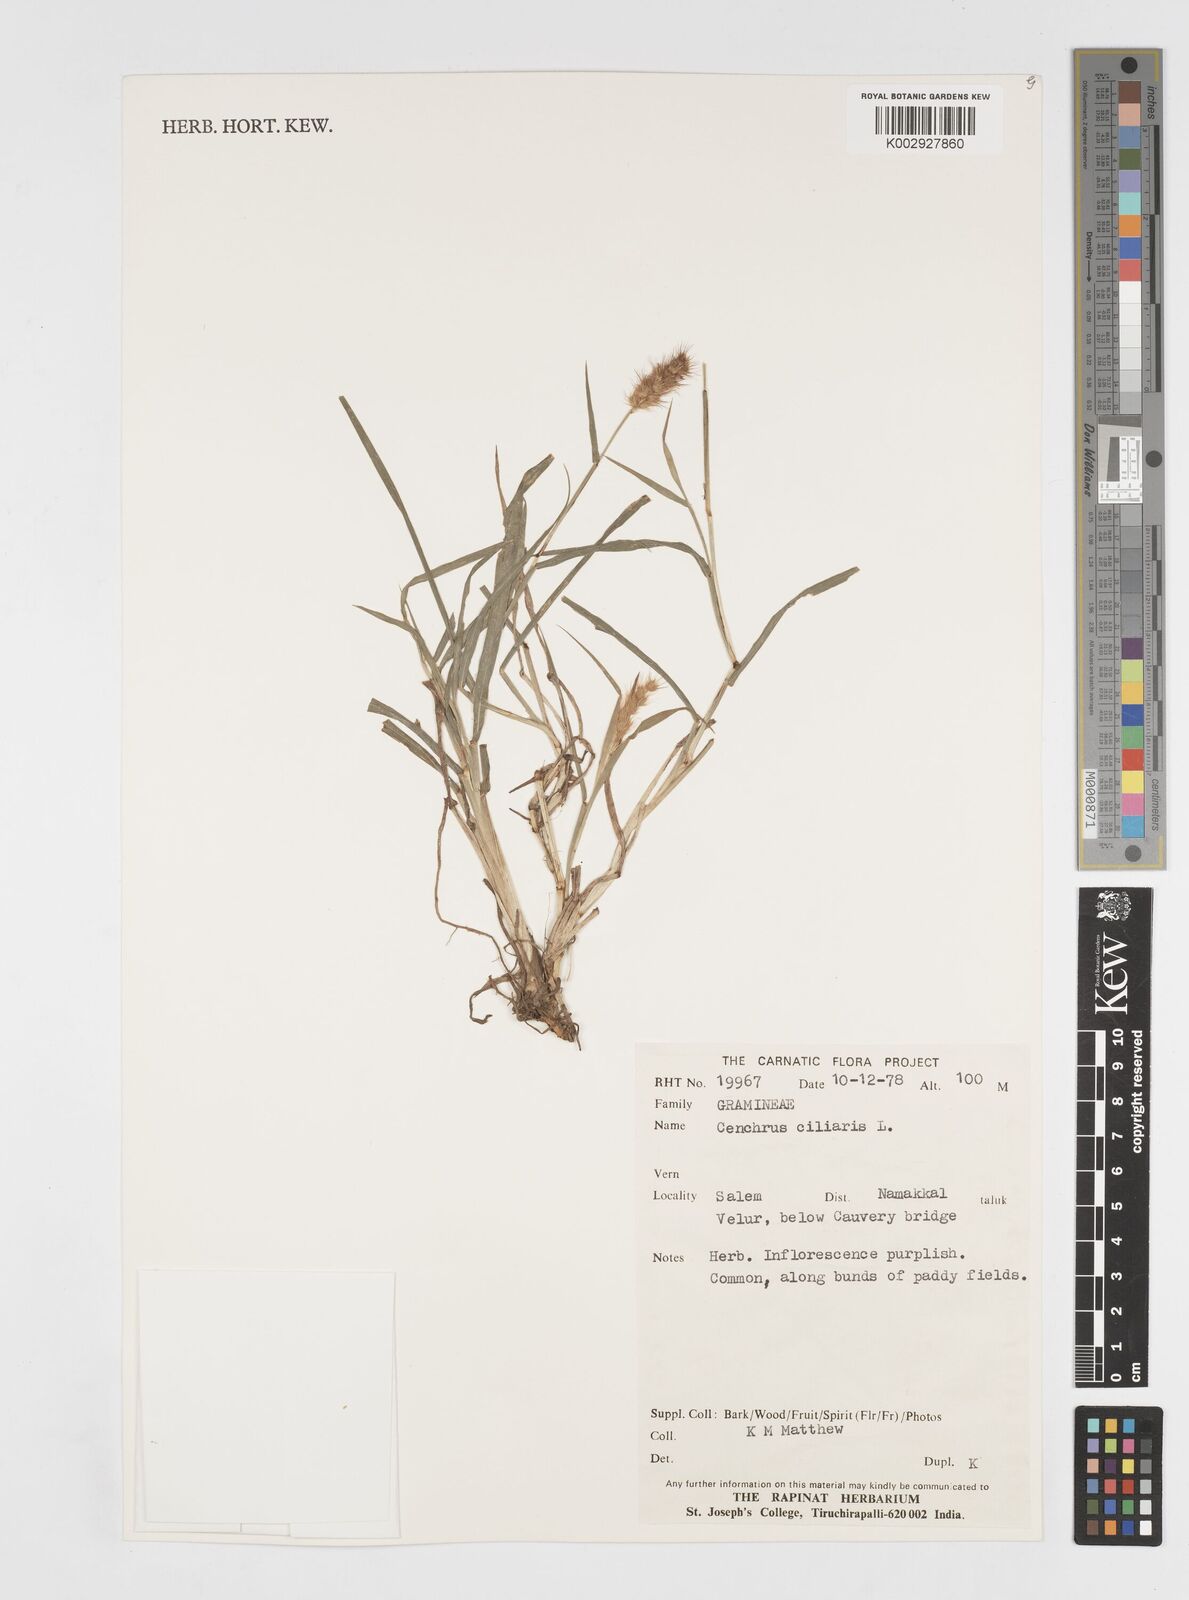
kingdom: Plantae
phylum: Tracheophyta
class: Liliopsida
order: Poales
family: Poaceae
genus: Cenchrus
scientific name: Cenchrus ciliaris
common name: Buffelgrass
